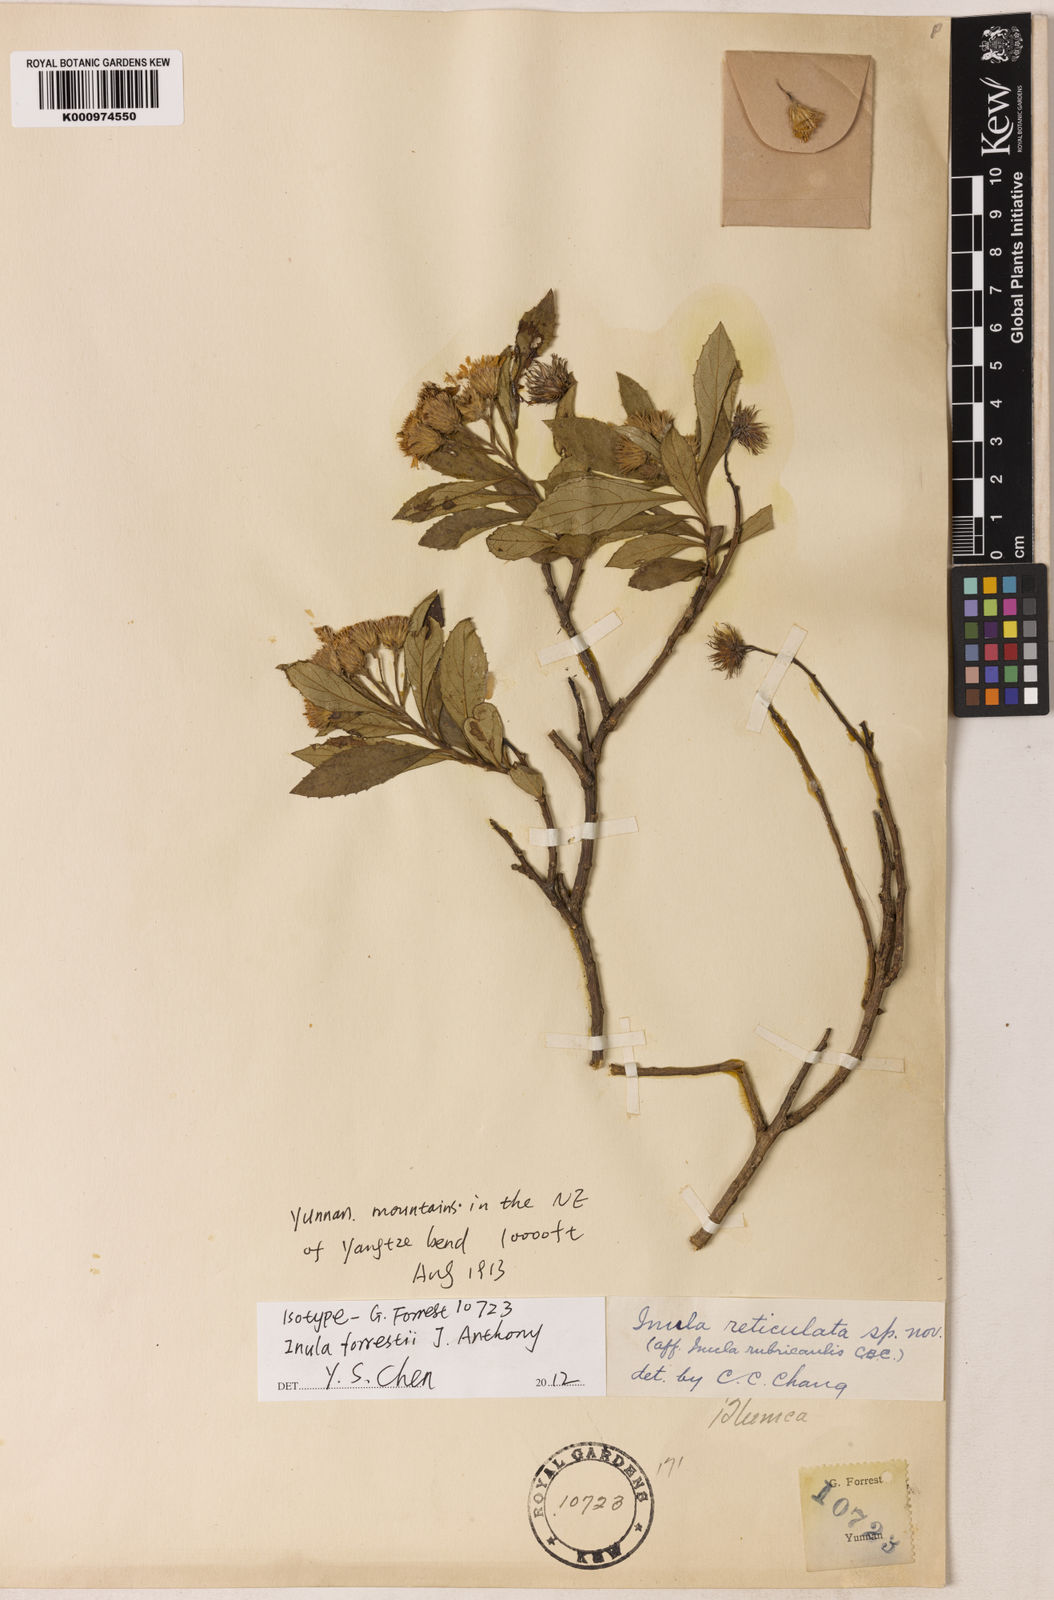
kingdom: Plantae
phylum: Tracheophyta
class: Magnoliopsida
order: Asterales
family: Asteraceae
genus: Inula
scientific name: Inula
